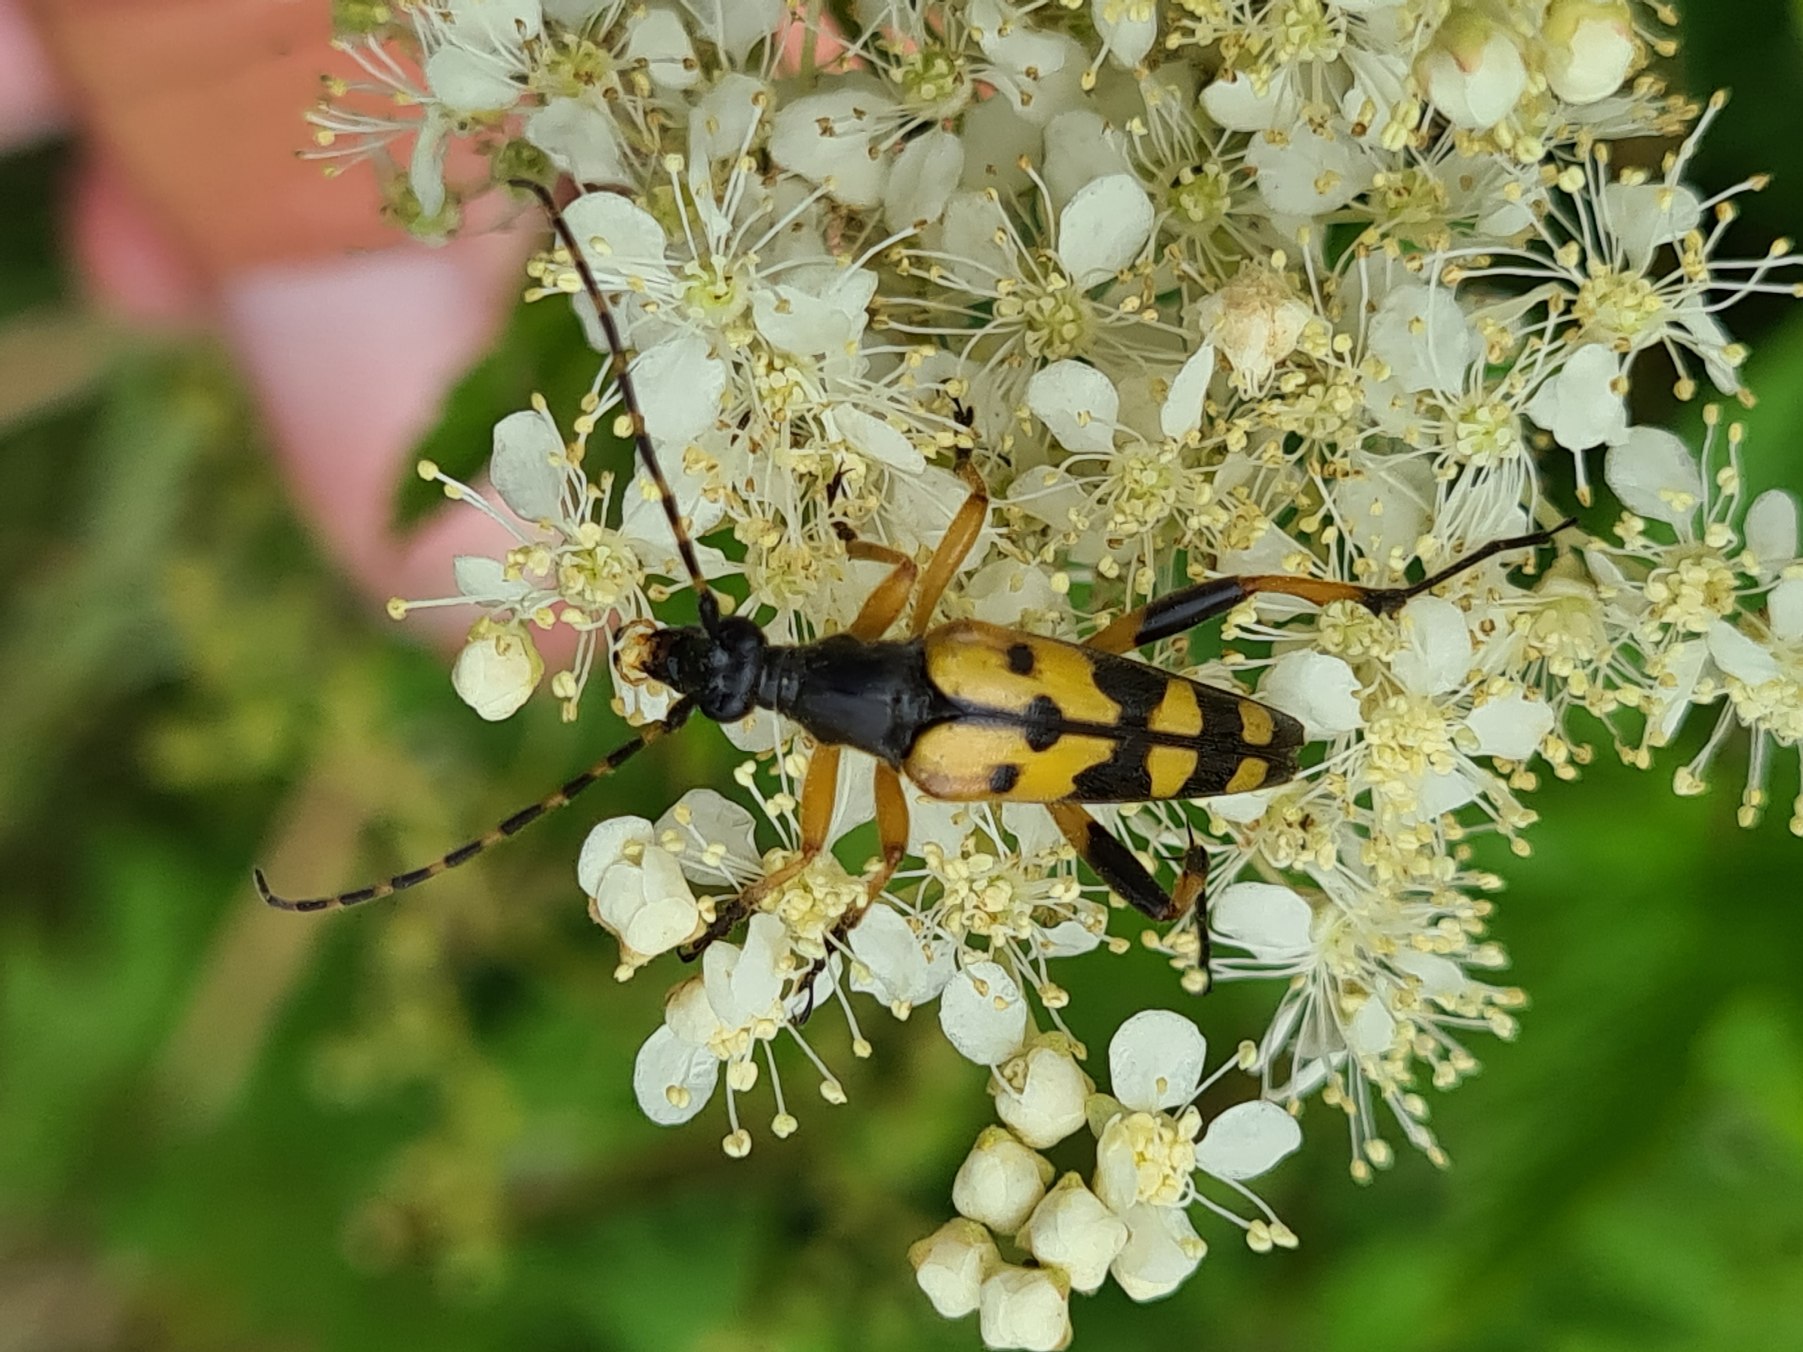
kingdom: Animalia
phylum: Arthropoda
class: Insecta
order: Coleoptera
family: Cerambycidae
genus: Rutpela
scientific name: Rutpela maculata
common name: Sydlig blomsterbuk
